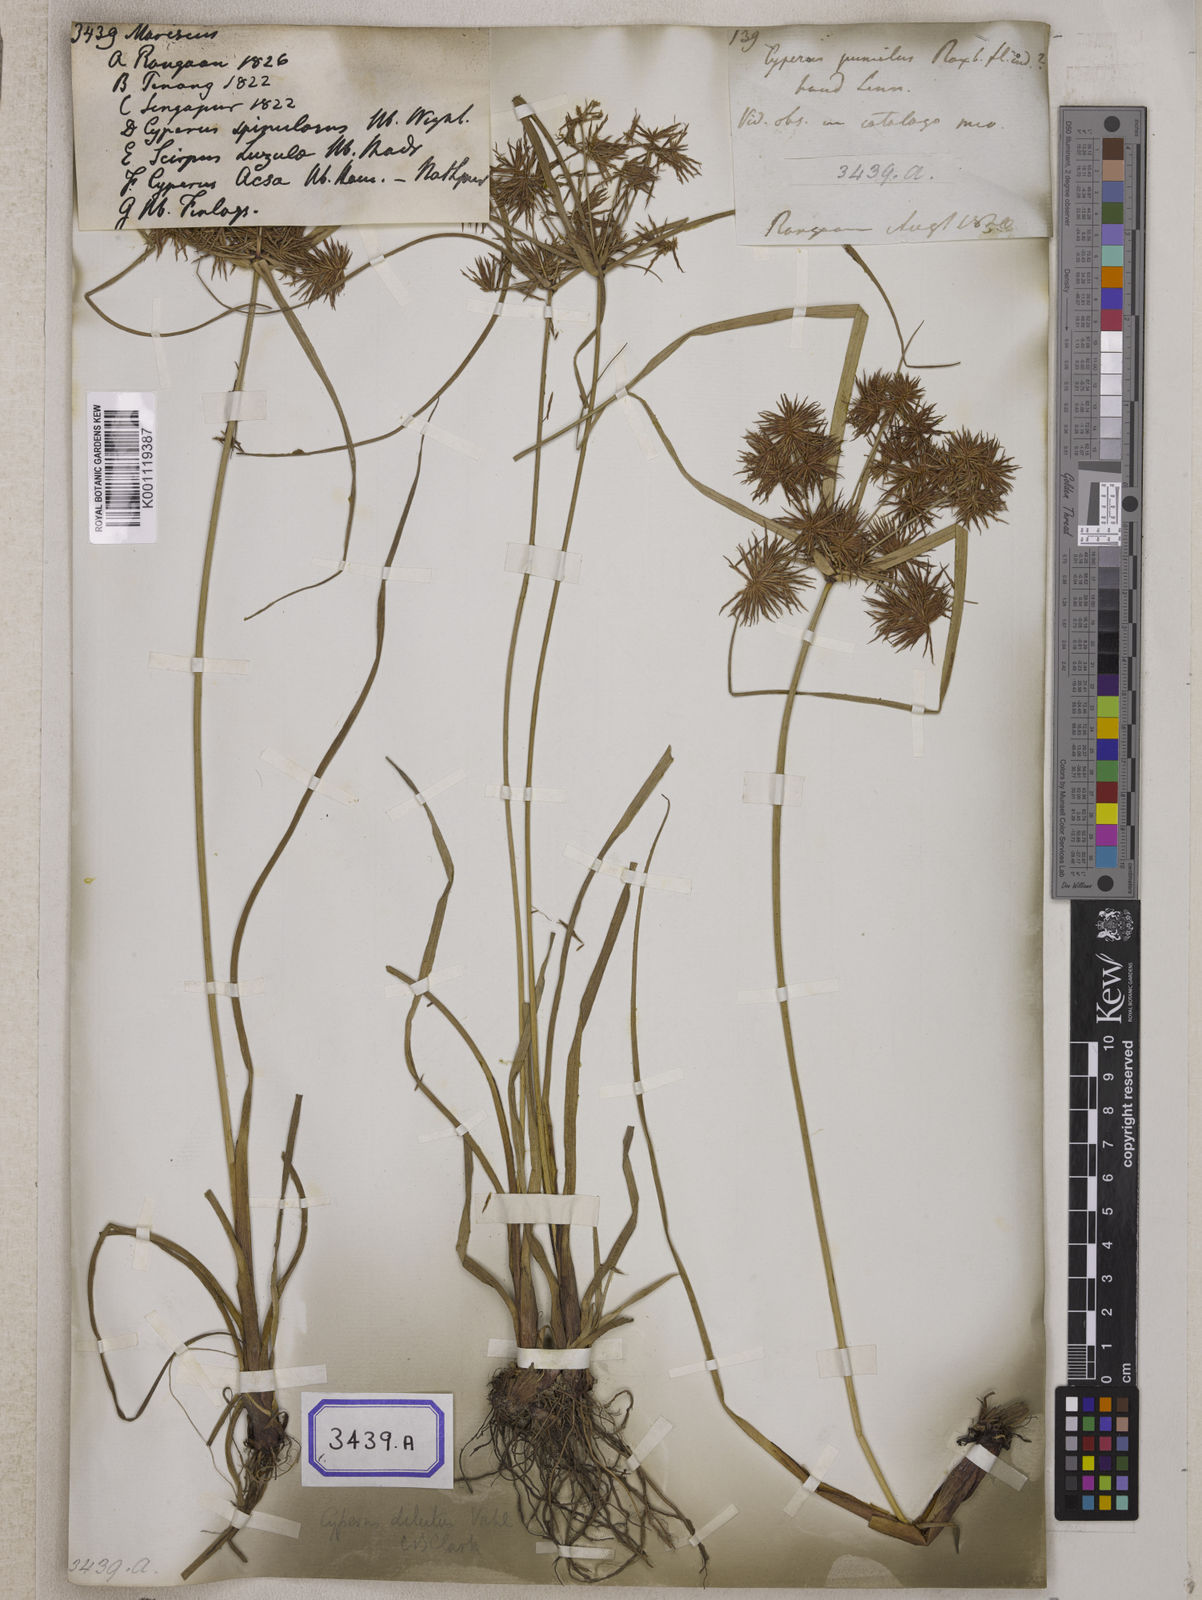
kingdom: Plantae
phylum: Tracheophyta
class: Liliopsida
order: Poales
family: Cyperaceae
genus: Mariscus
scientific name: Mariscus
